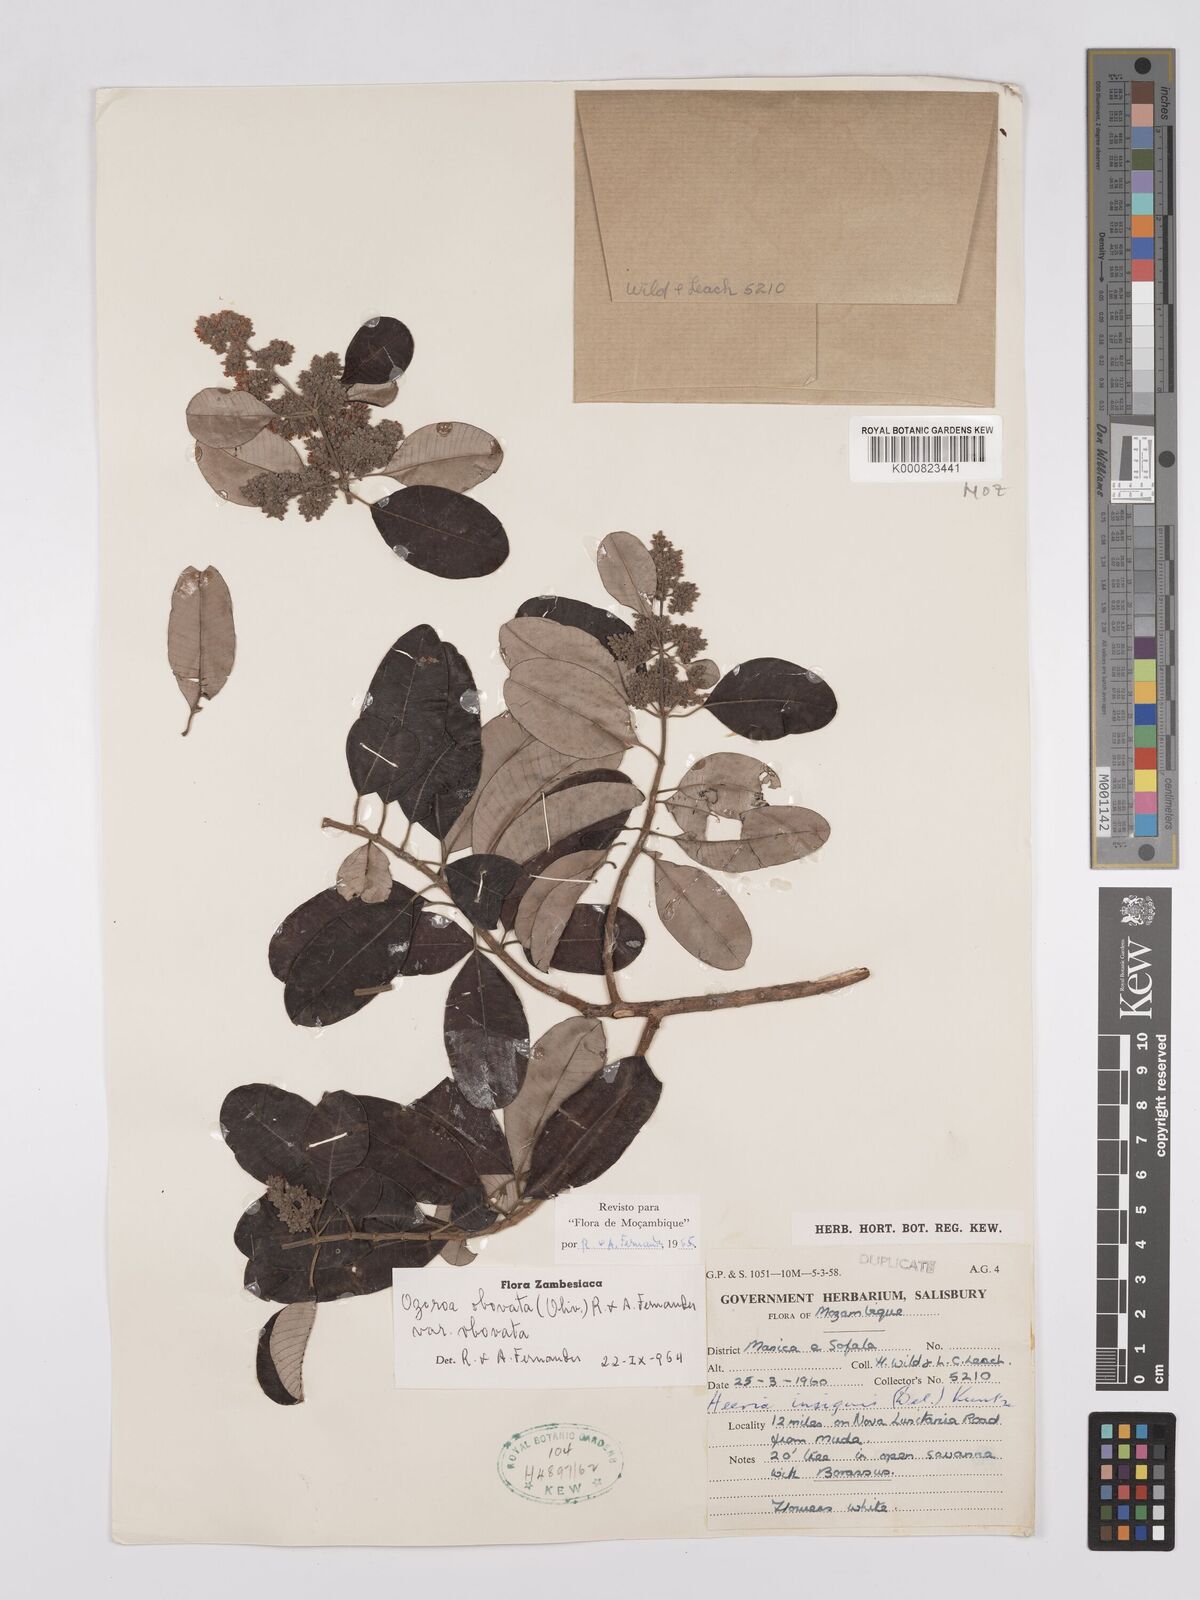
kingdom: Plantae
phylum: Tracheophyta
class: Magnoliopsida
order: Sapindales
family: Anacardiaceae
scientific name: Anacardiaceae
